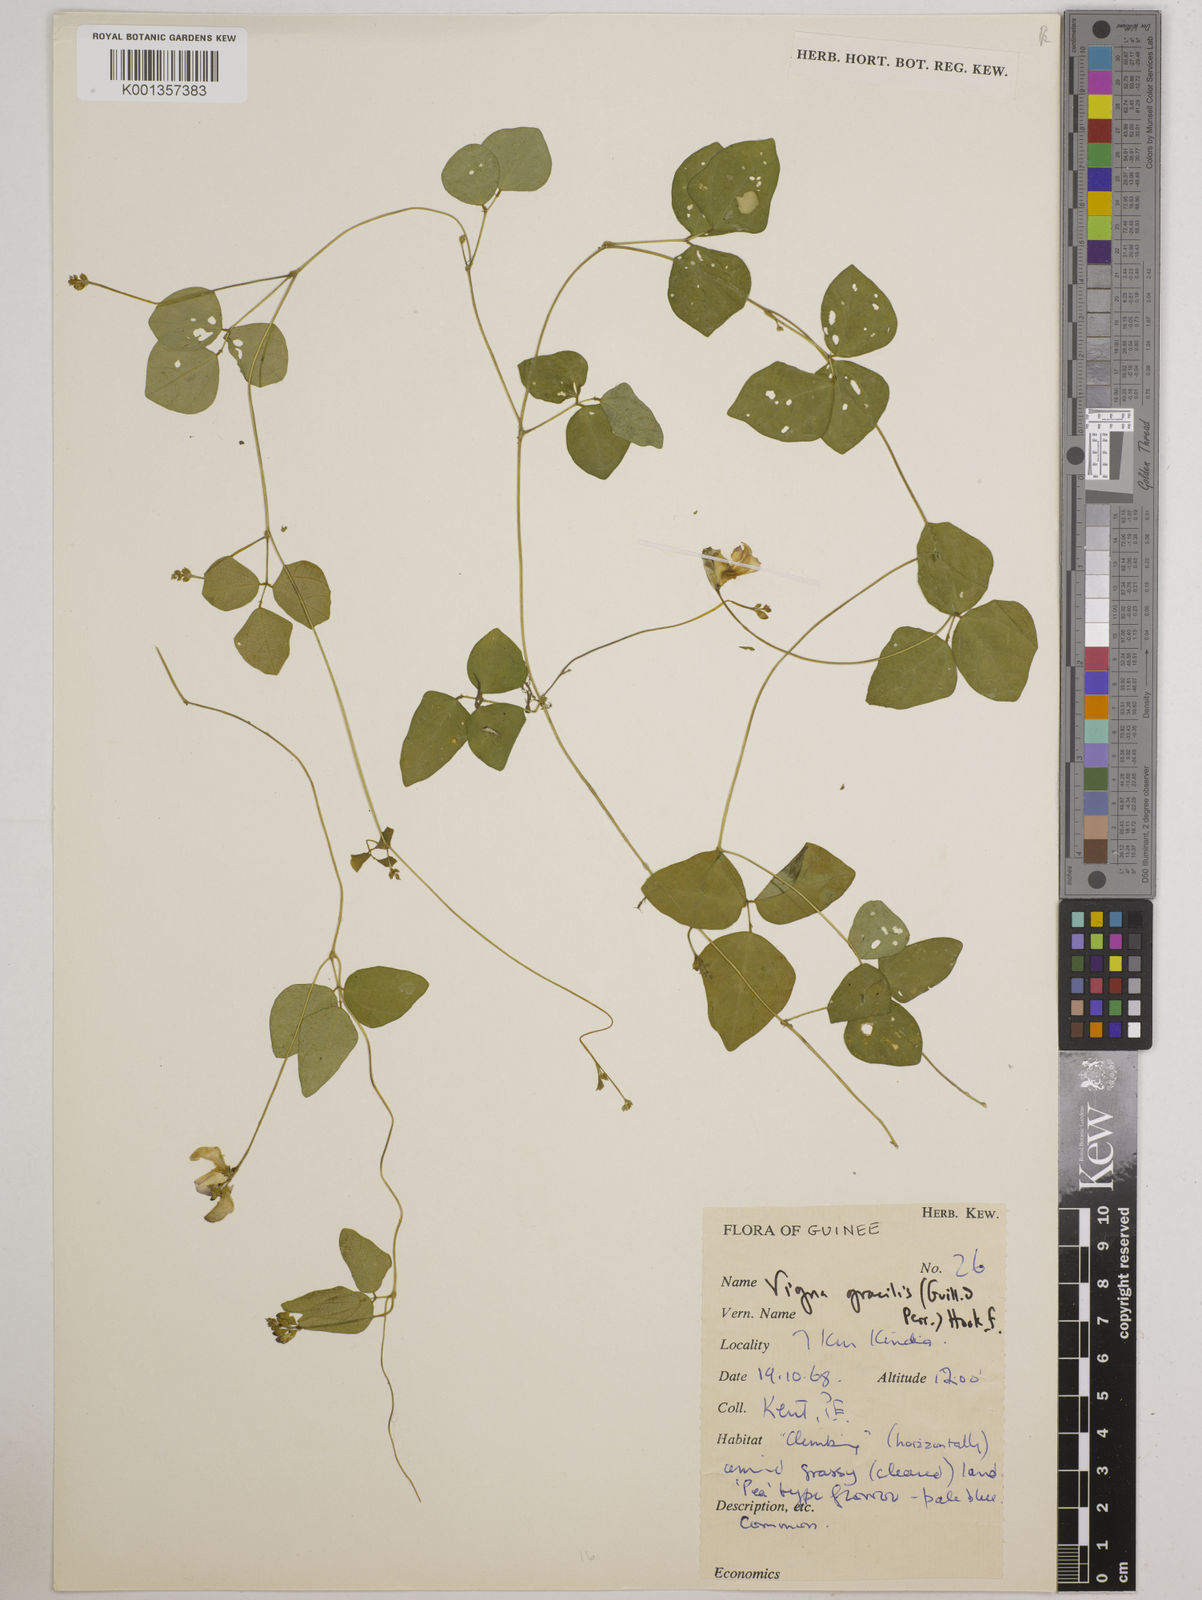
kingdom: Plantae
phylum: Tracheophyta
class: Magnoliopsida
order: Fabales
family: Fabaceae
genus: Vigna
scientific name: Vigna gracilis
